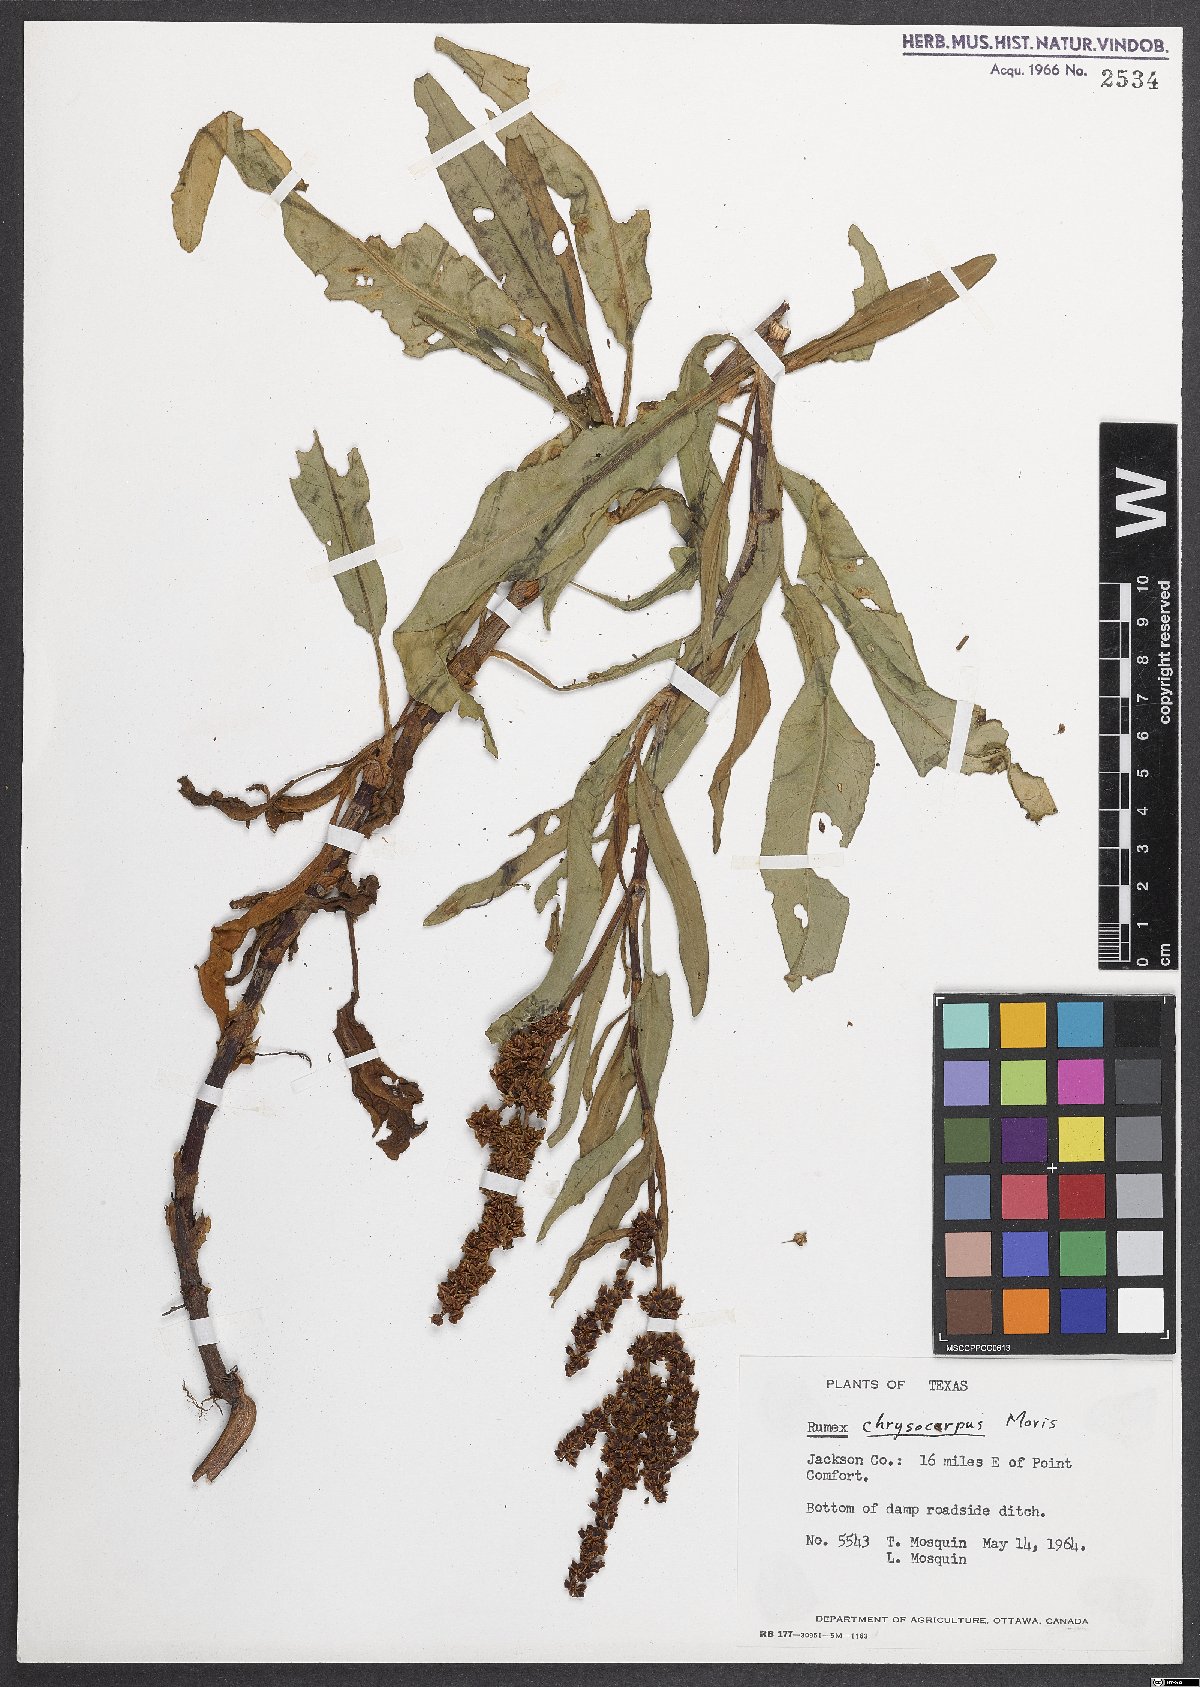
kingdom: Plantae
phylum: Tracheophyta
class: Magnoliopsida
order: Caryophyllales
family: Polygonaceae
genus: Rumex
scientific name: Rumex chrysocarpos
